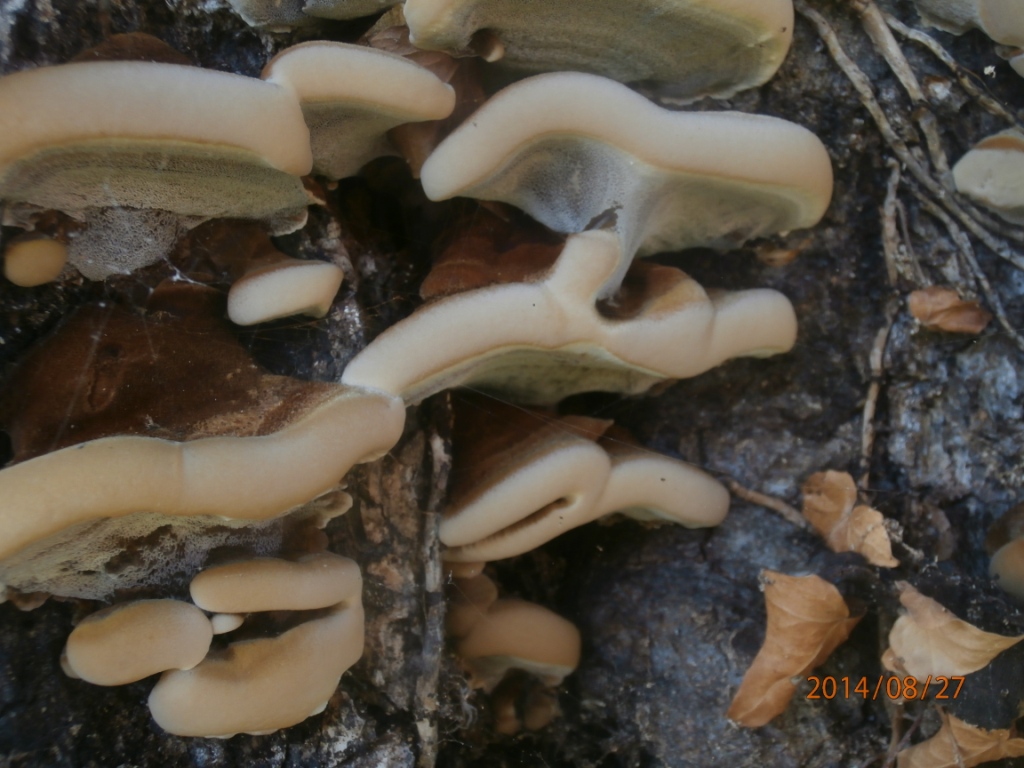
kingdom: Fungi
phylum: Basidiomycota
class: Agaricomycetes
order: Hymenochaetales
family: Hymenochaetaceae
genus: Inonotus
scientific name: Inonotus cuticularis
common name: kroghåret spejlporesvamp
